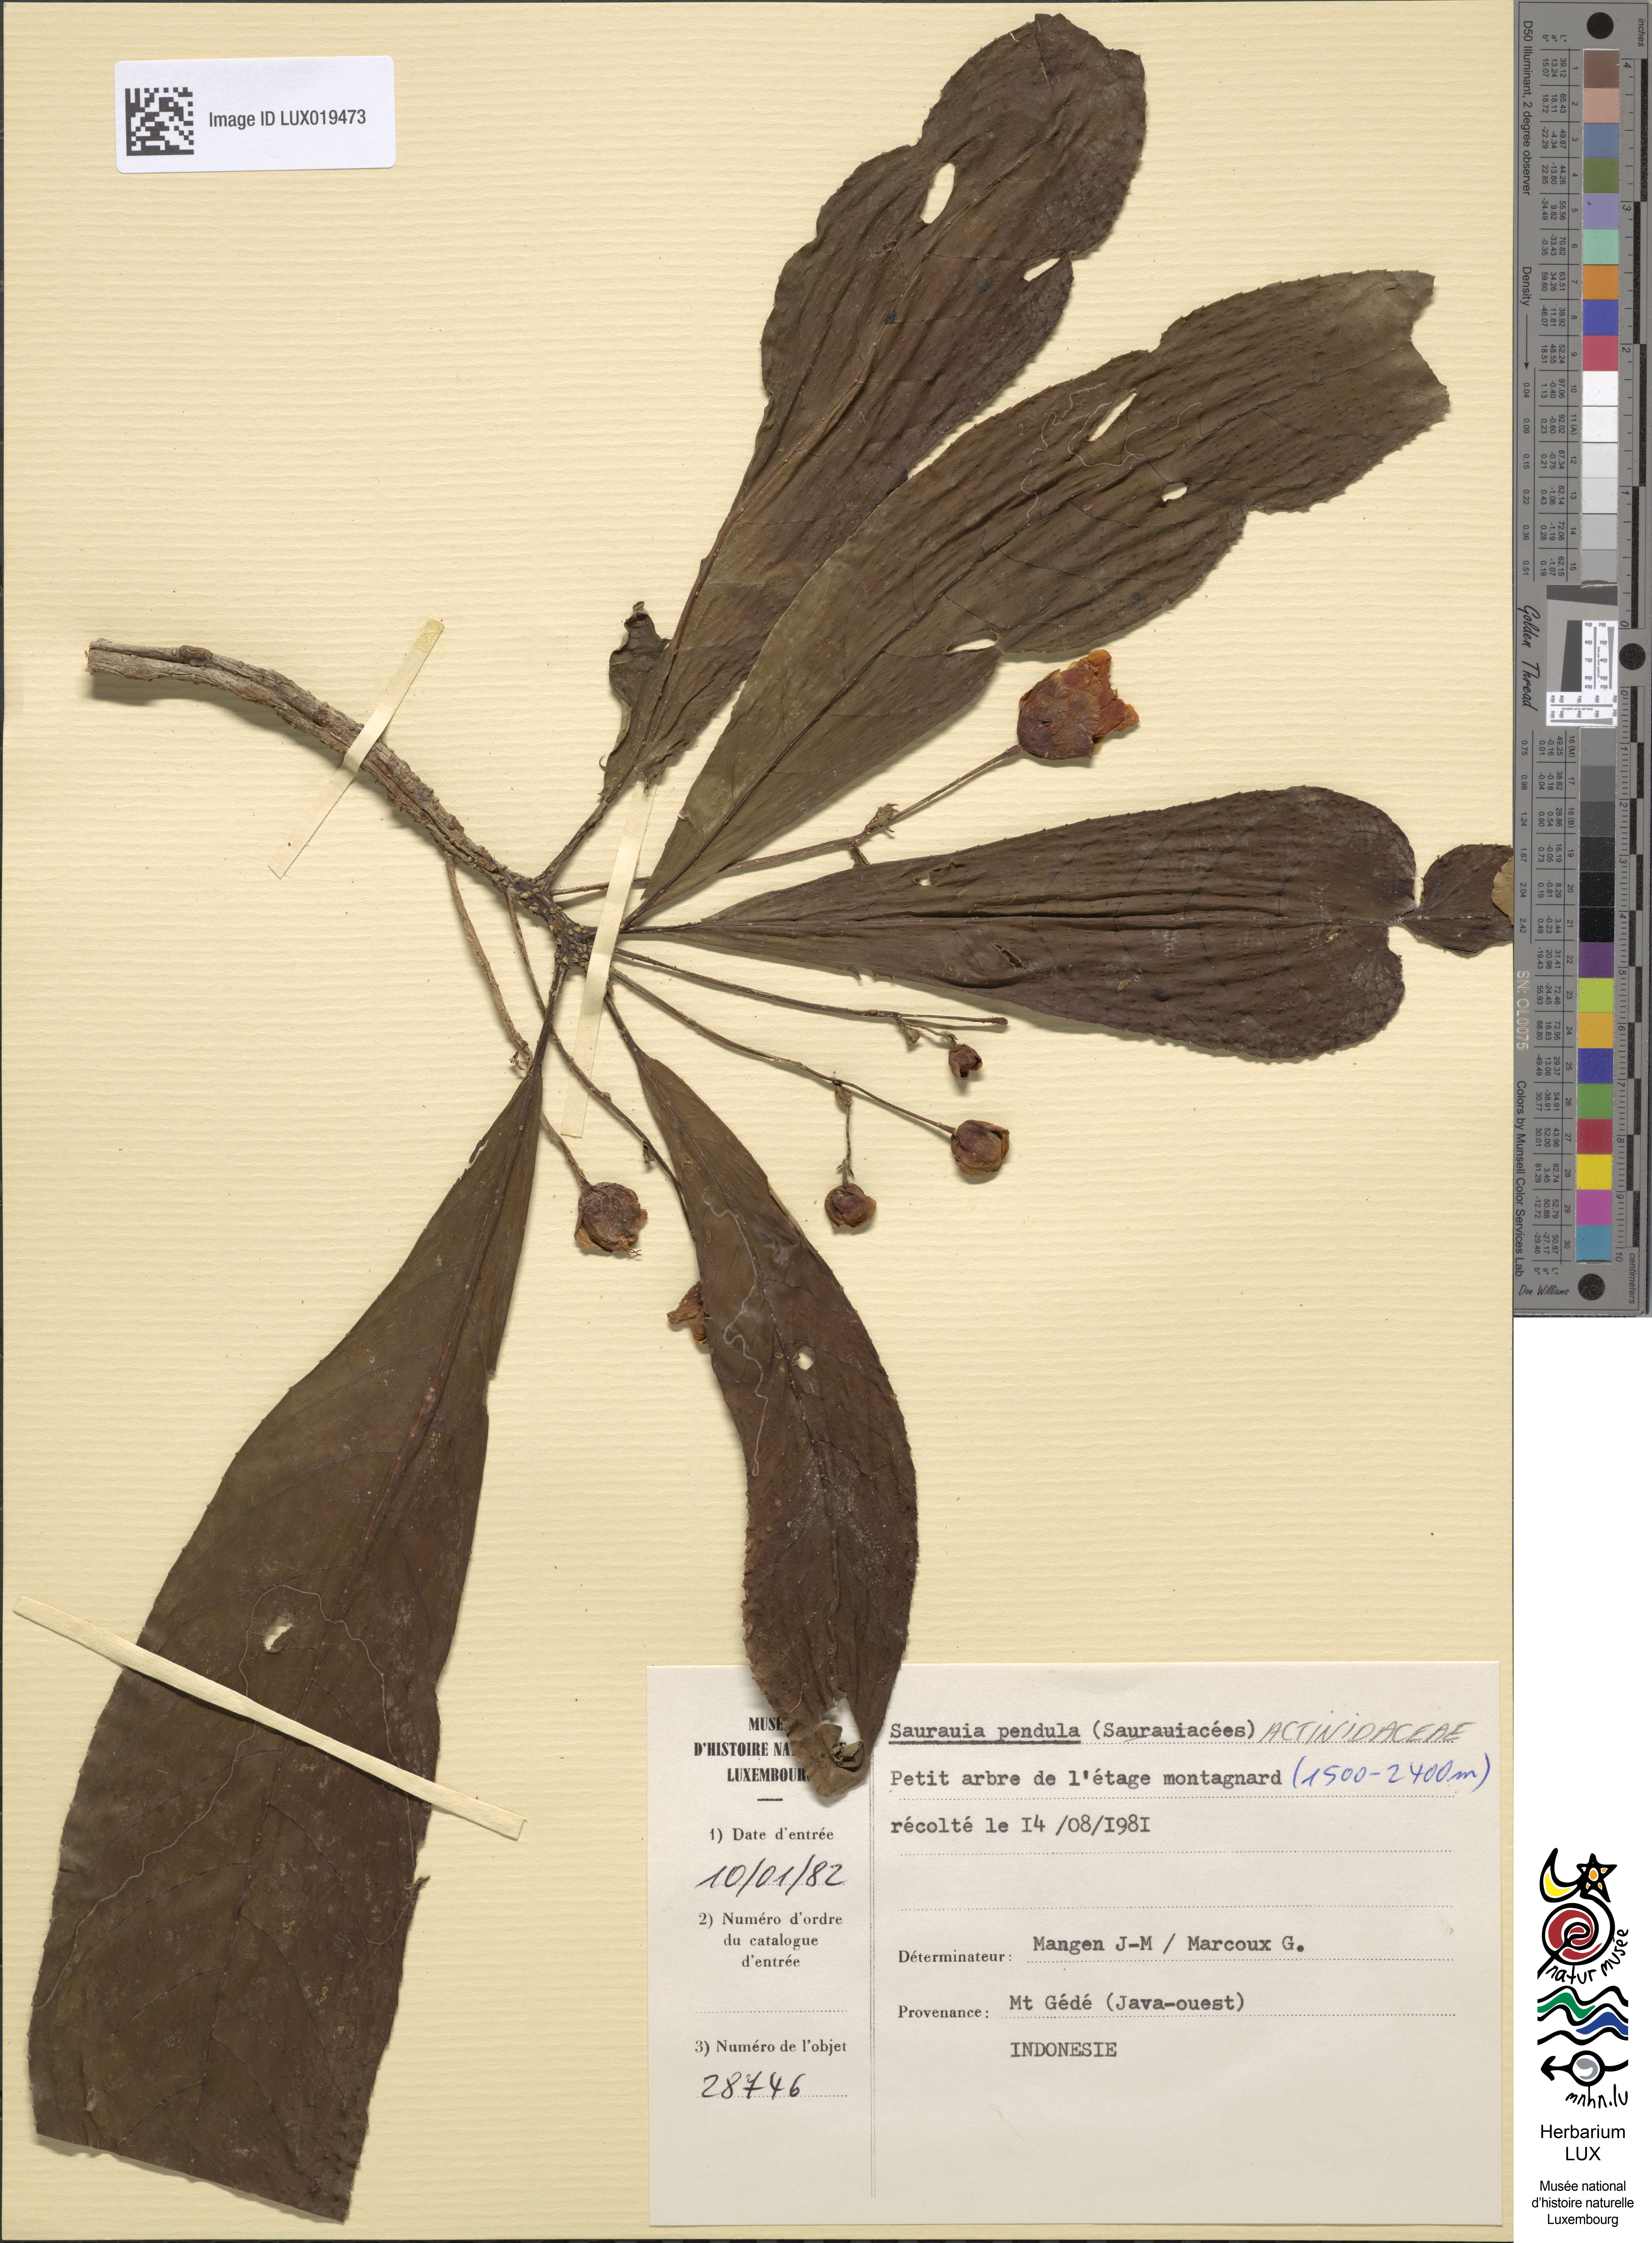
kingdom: Plantae
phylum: Tracheophyta
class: Magnoliopsida
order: Ericales
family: Actinidiaceae
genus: Saurauia
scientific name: Saurauia pendula
